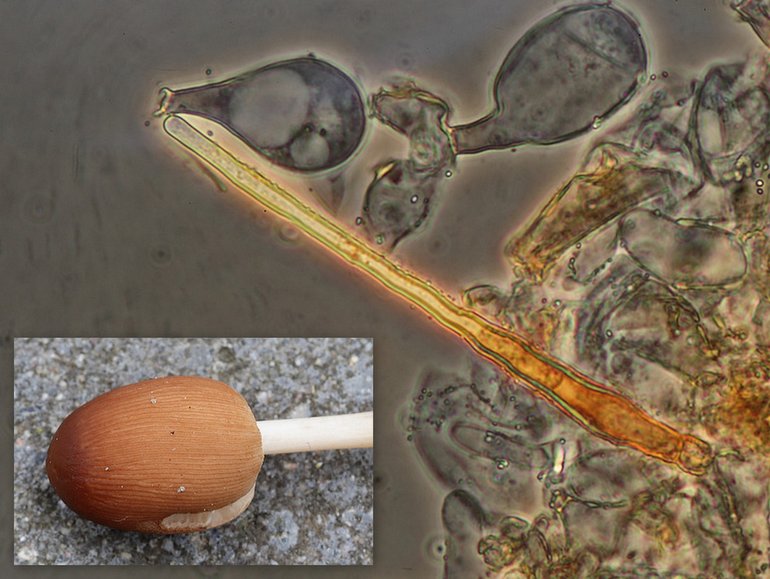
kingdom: Fungi
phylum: Basidiomycota
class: Agaricomycetes
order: Agaricales
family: Psathyrellaceae
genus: Parasola
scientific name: Parasola auricoma
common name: hansens hjulhat
